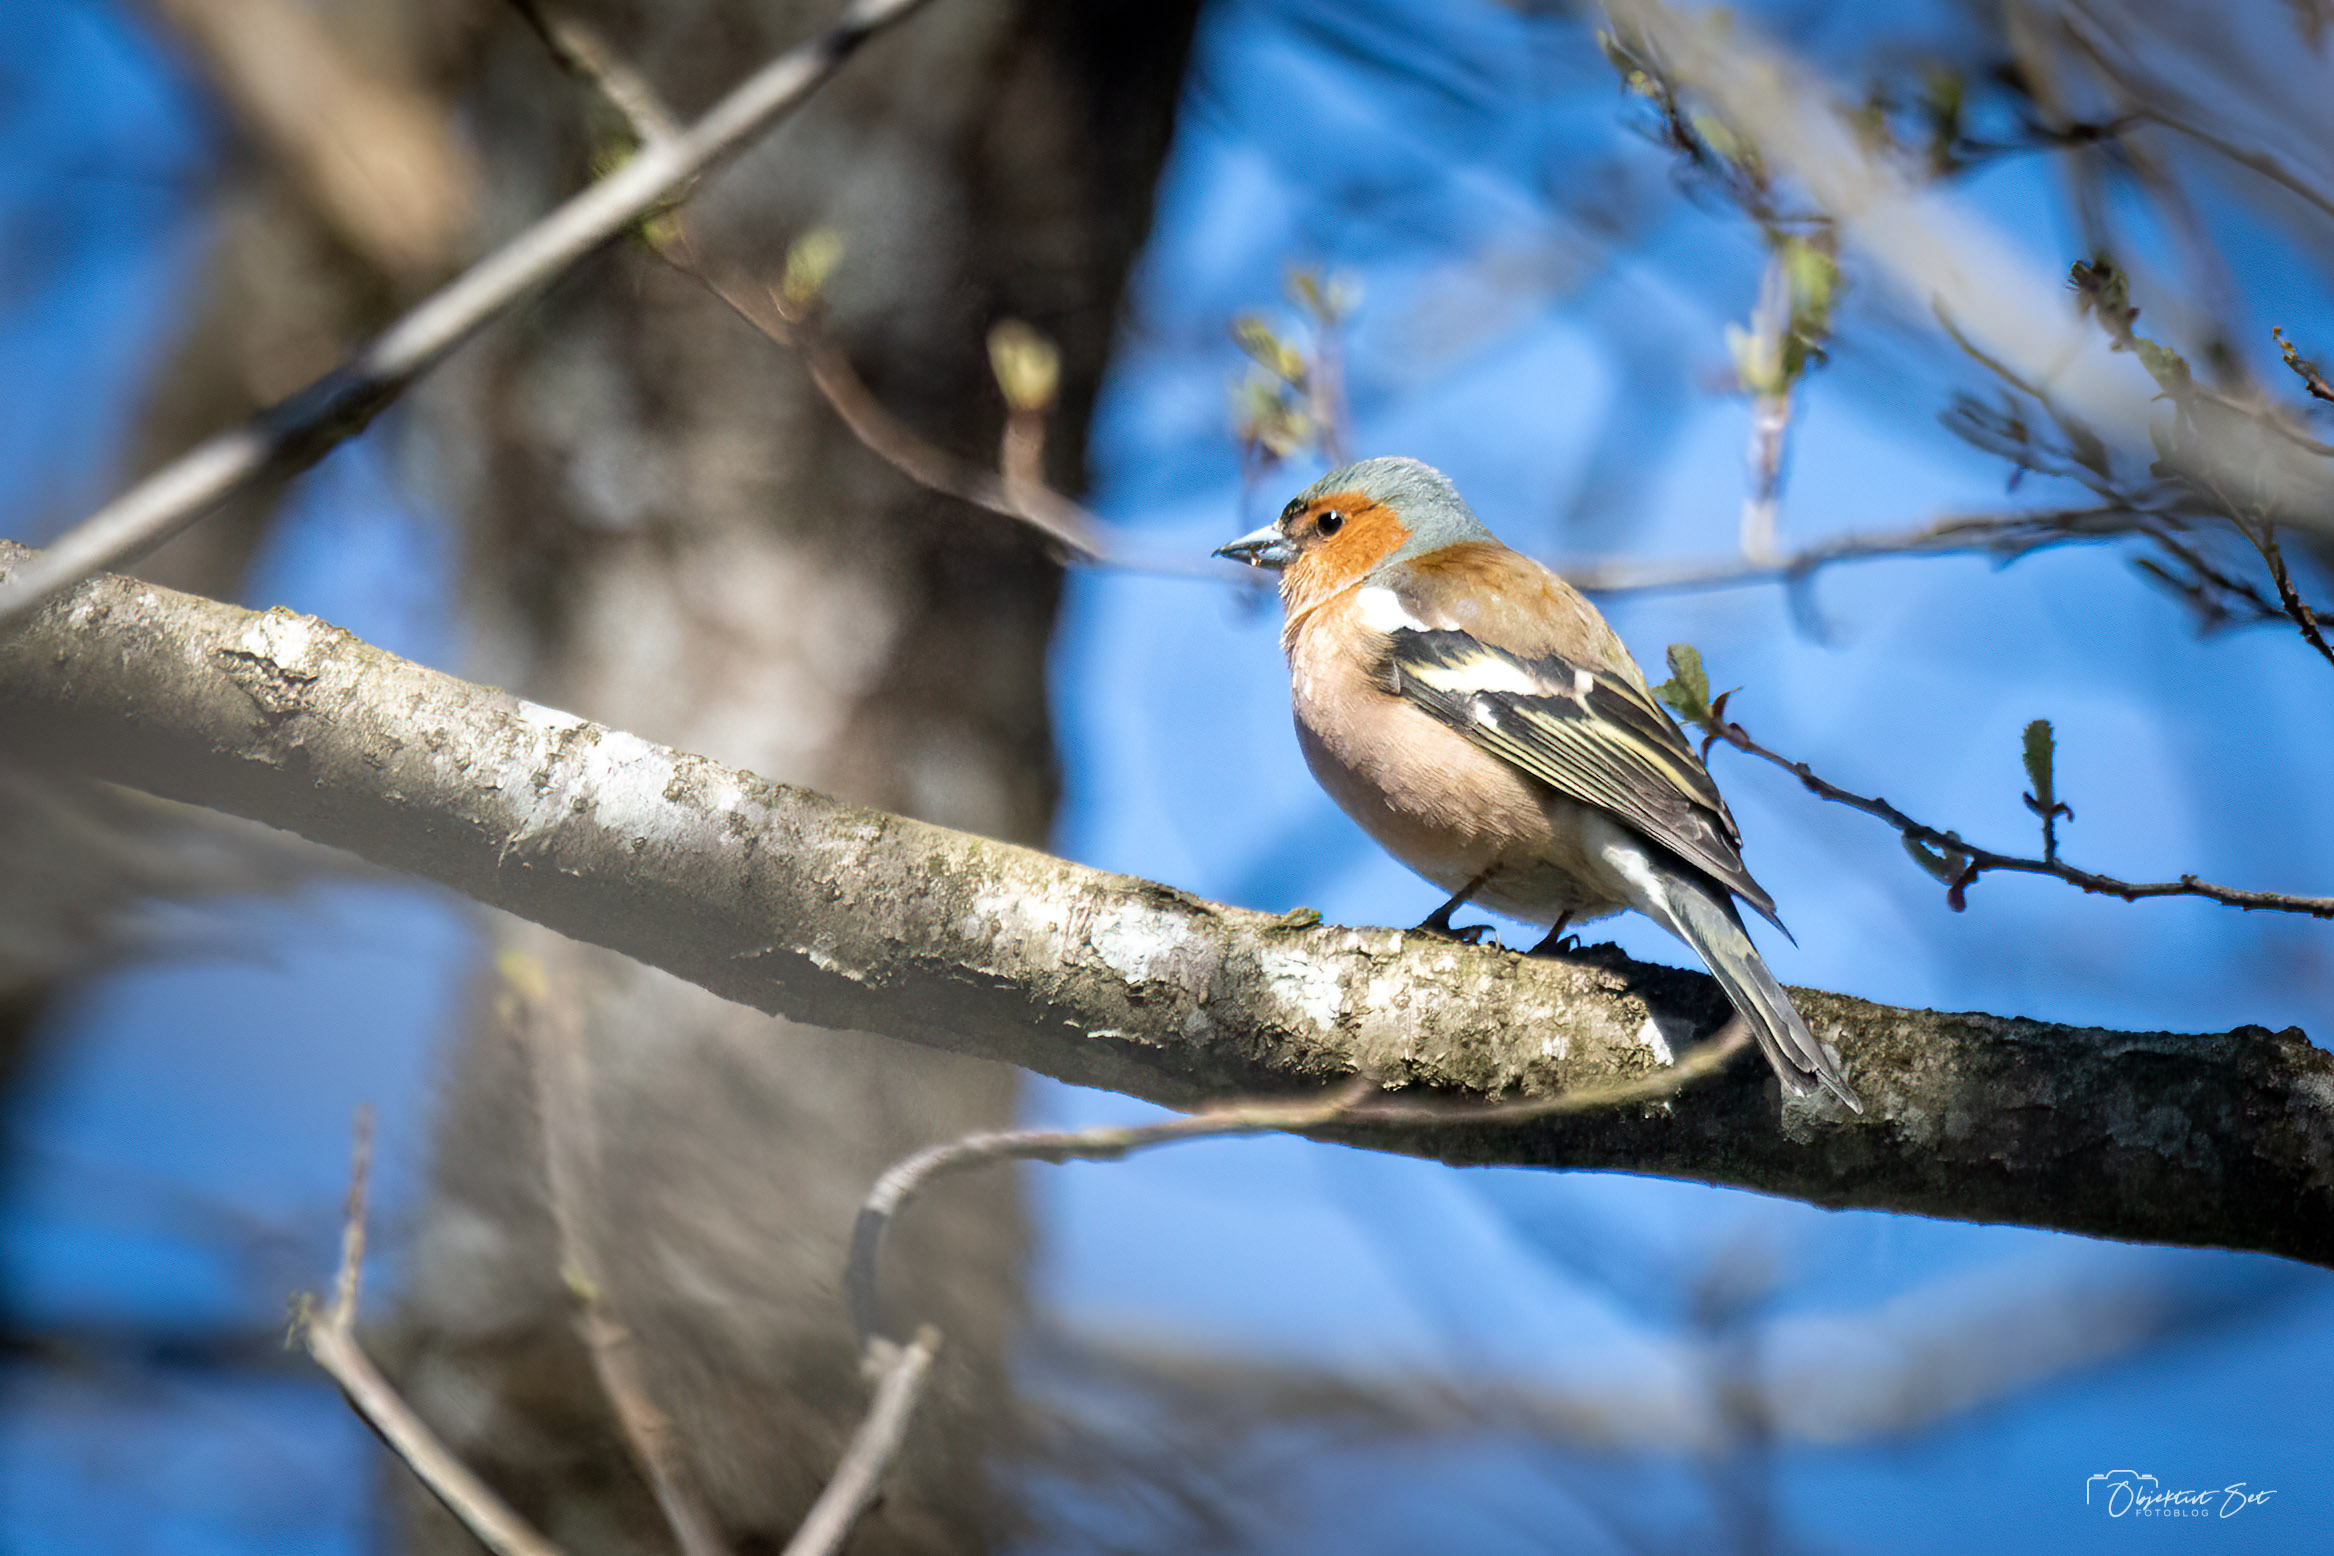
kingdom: Animalia
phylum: Chordata
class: Aves
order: Passeriformes
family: Fringillidae
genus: Fringilla
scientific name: Fringilla coelebs
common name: Bogfinke
